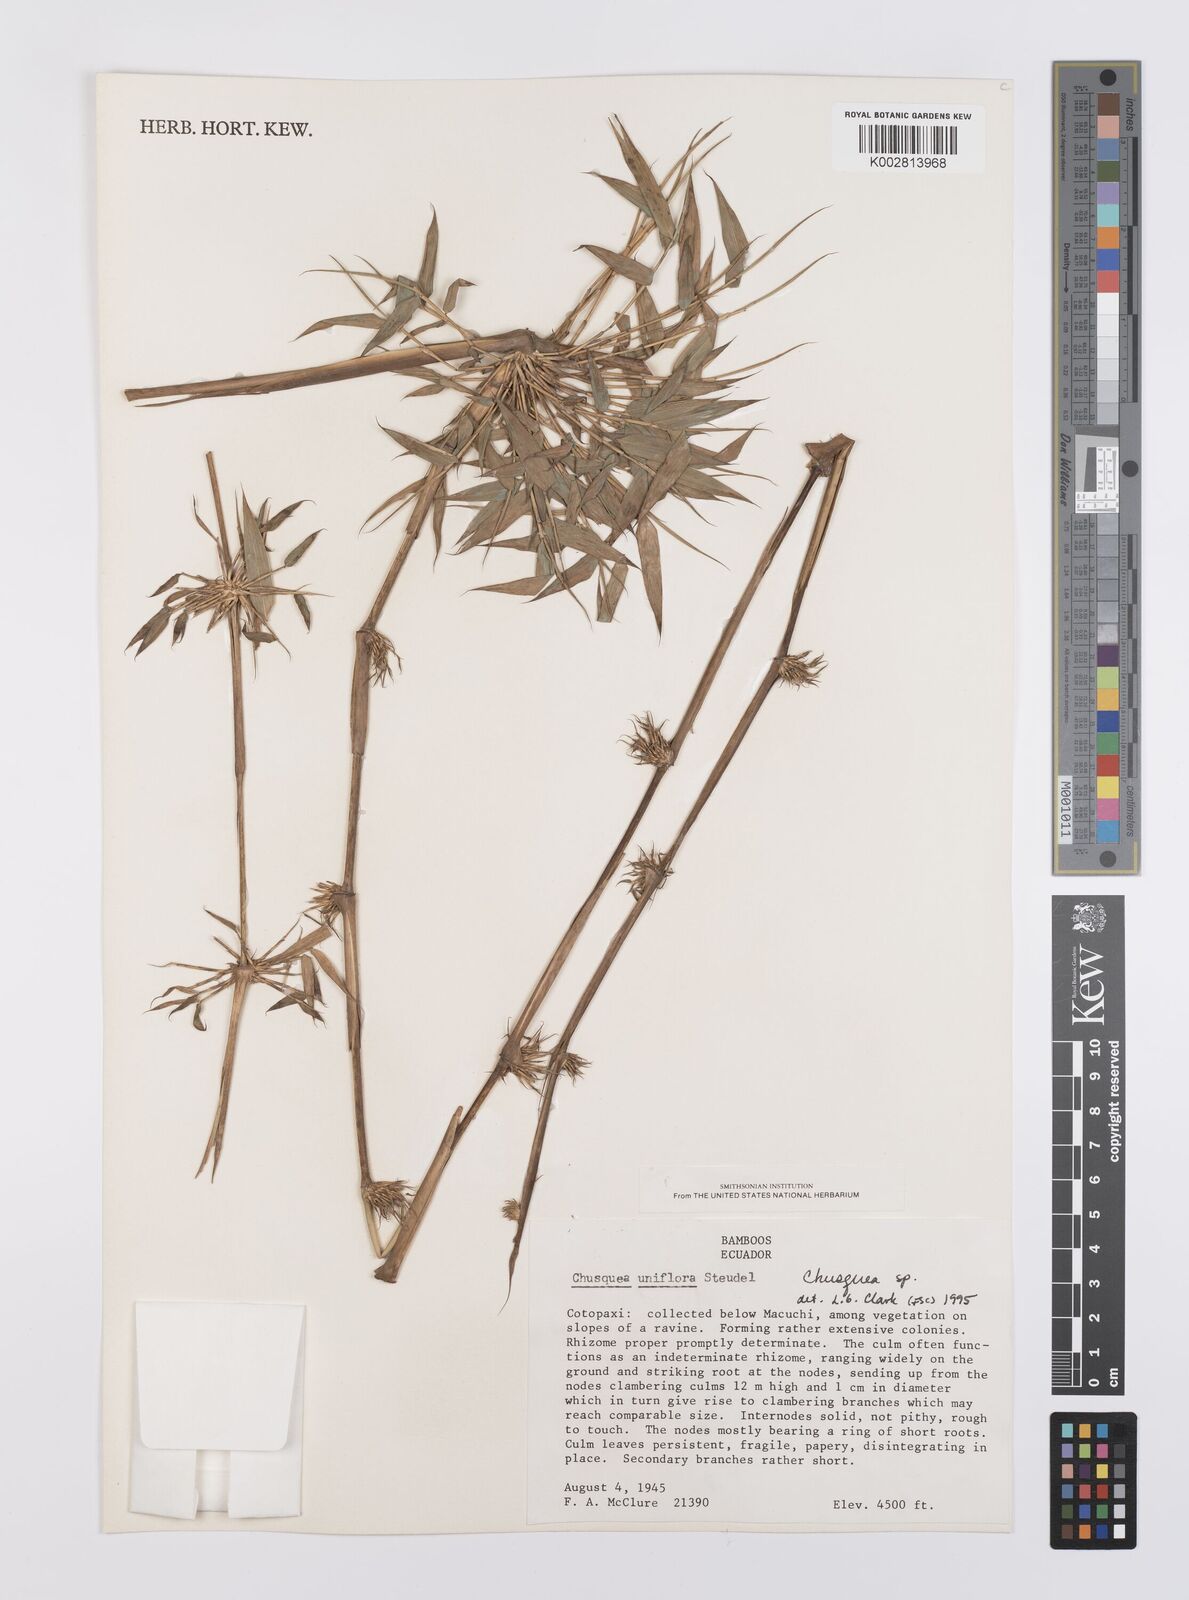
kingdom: Plantae
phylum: Tracheophyta
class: Liliopsida
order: Poales
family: Poaceae
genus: Chusquea
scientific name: Chusquea
